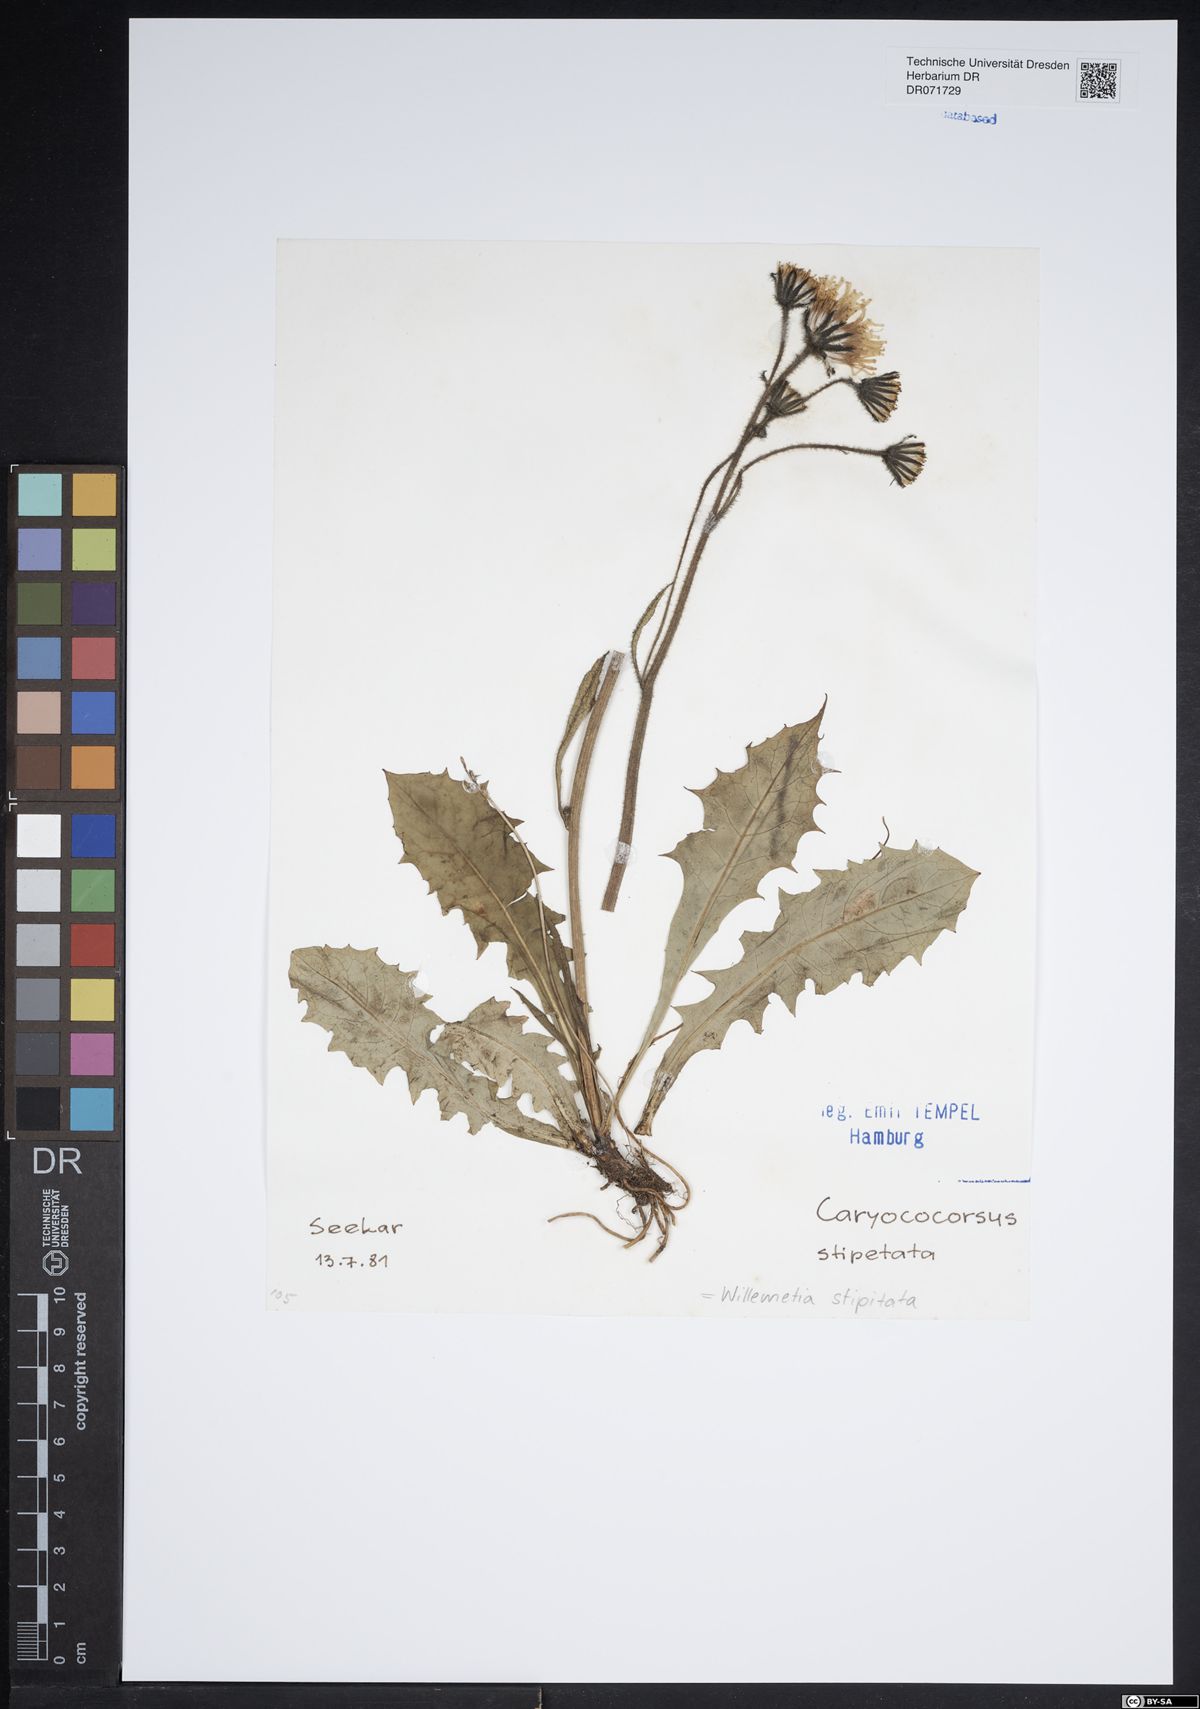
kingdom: Plantae
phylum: Tracheophyta
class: Magnoliopsida
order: Asterales
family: Asteraceae
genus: Willemetia
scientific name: Willemetia stipitata
